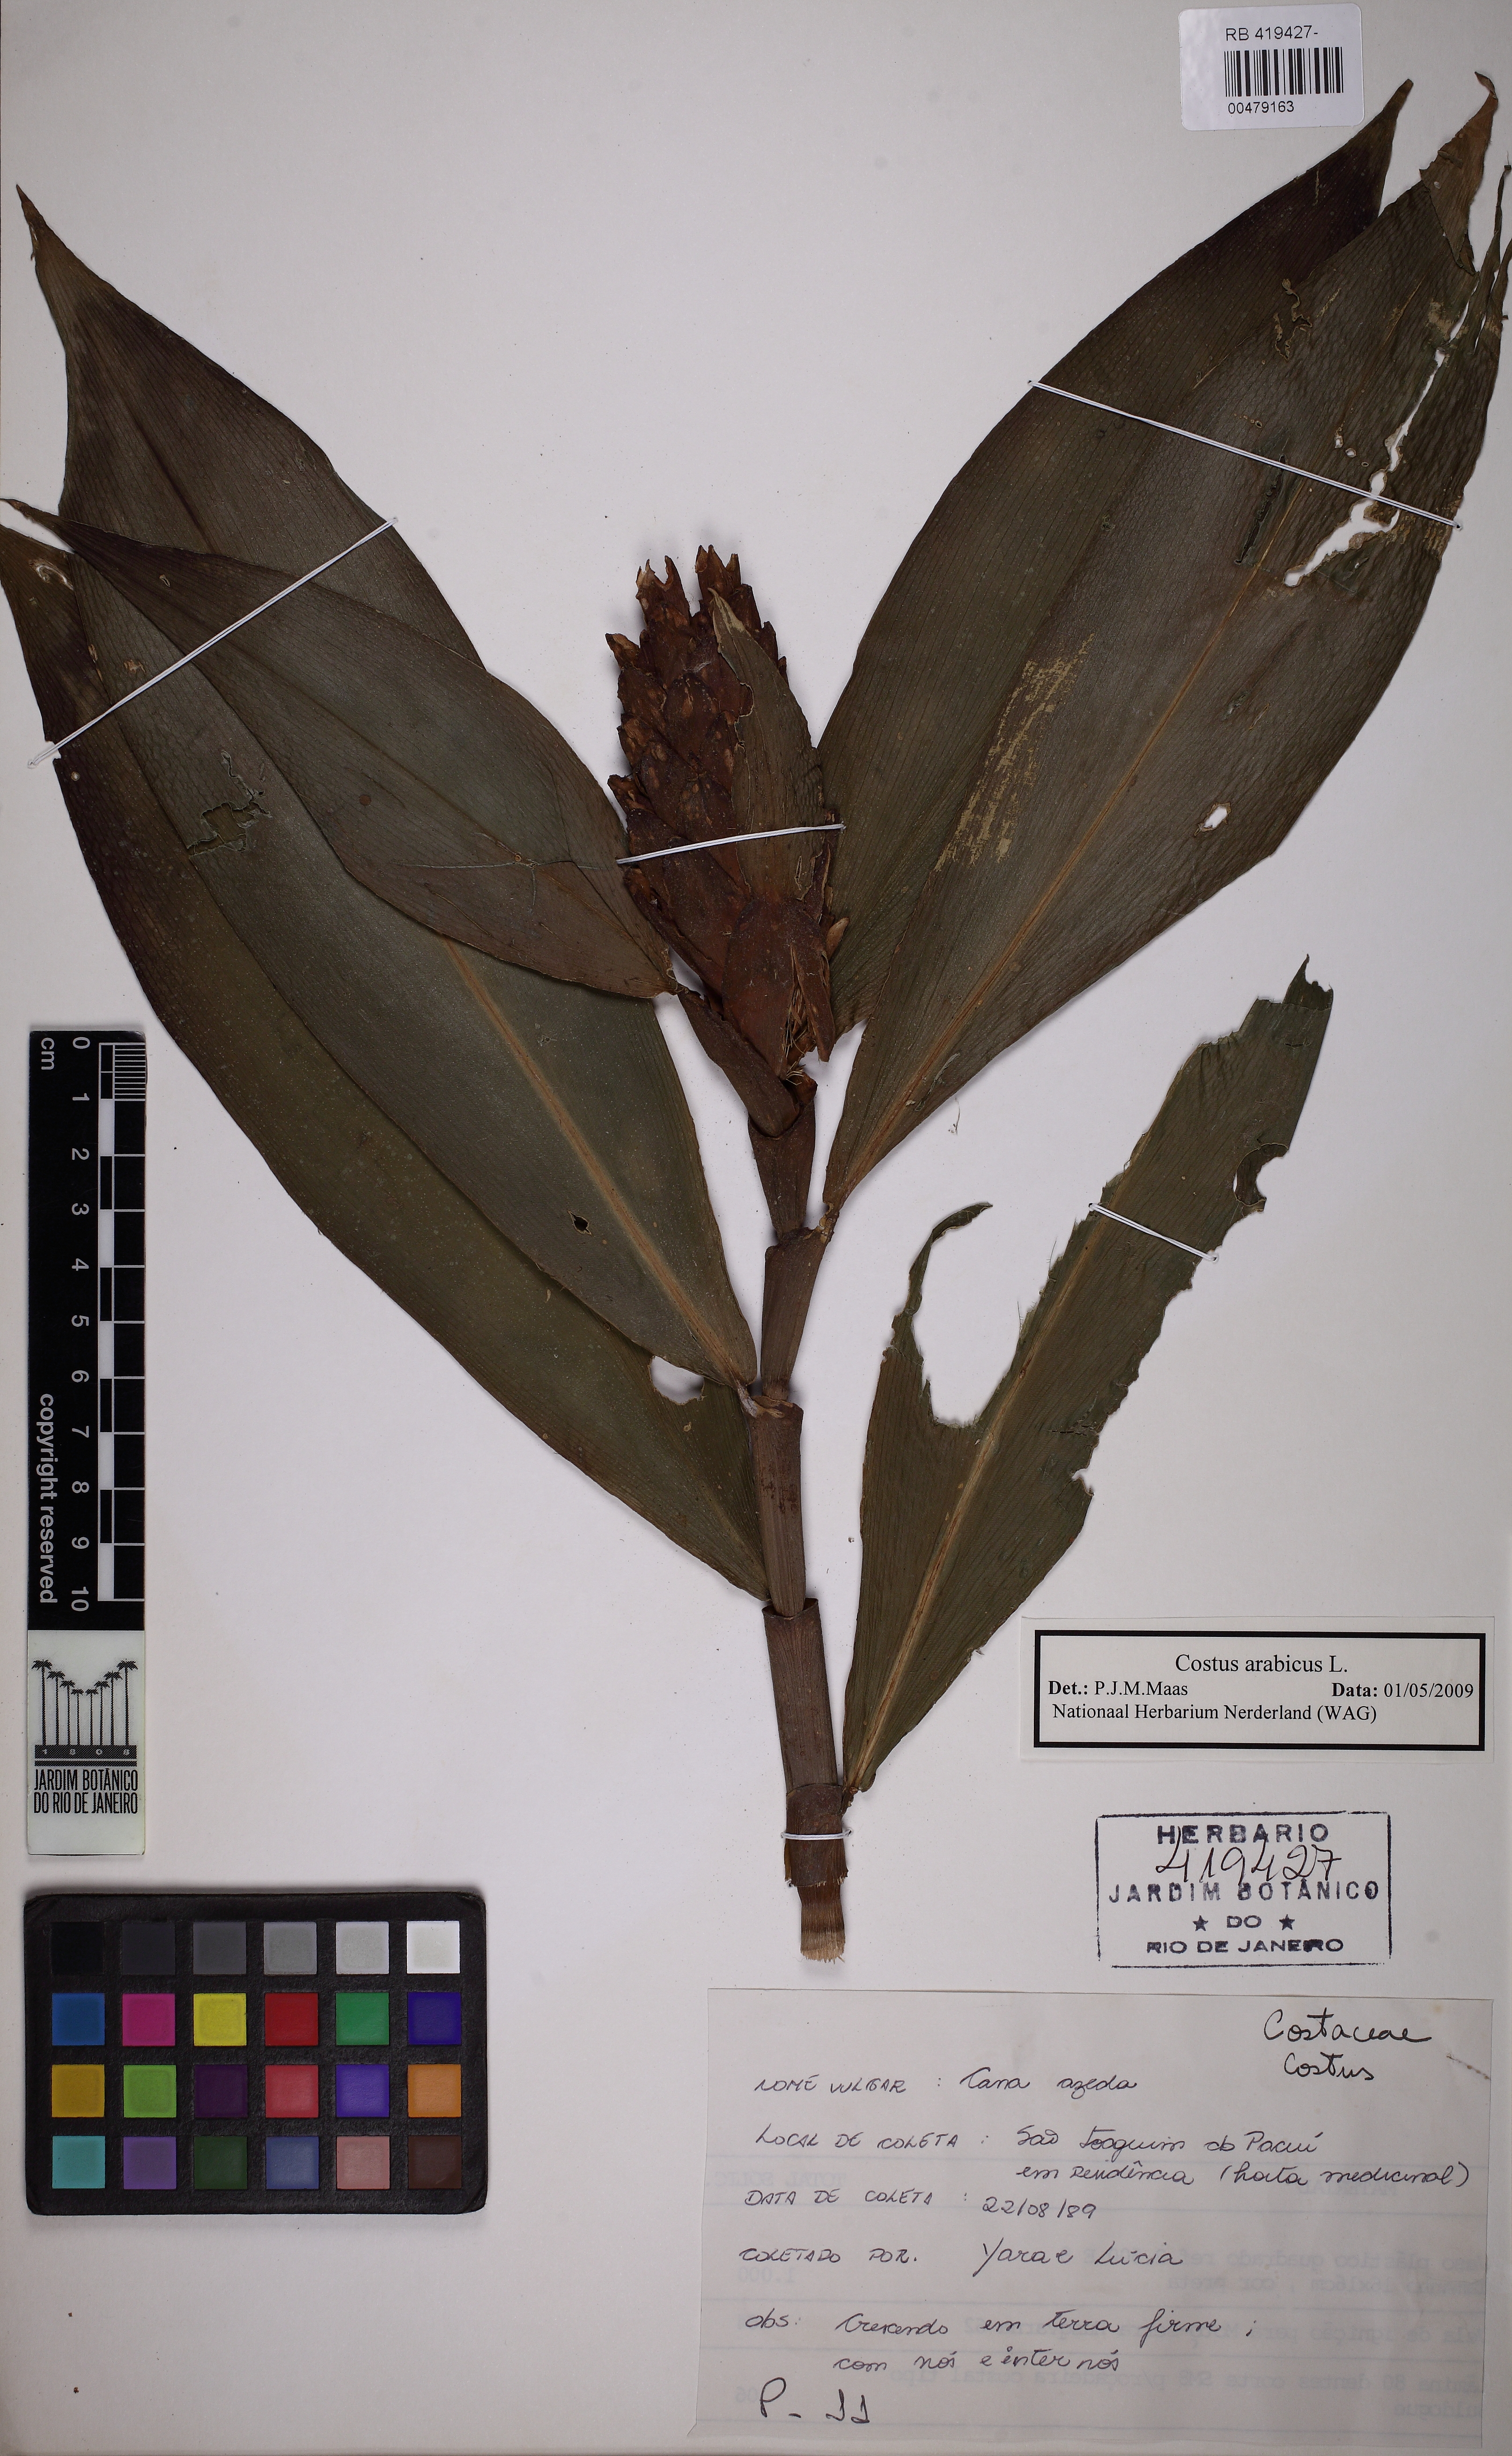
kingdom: Plantae
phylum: Tracheophyta
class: Liliopsida
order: Zingiberales
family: Costaceae
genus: Costus
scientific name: Costus arabicus
